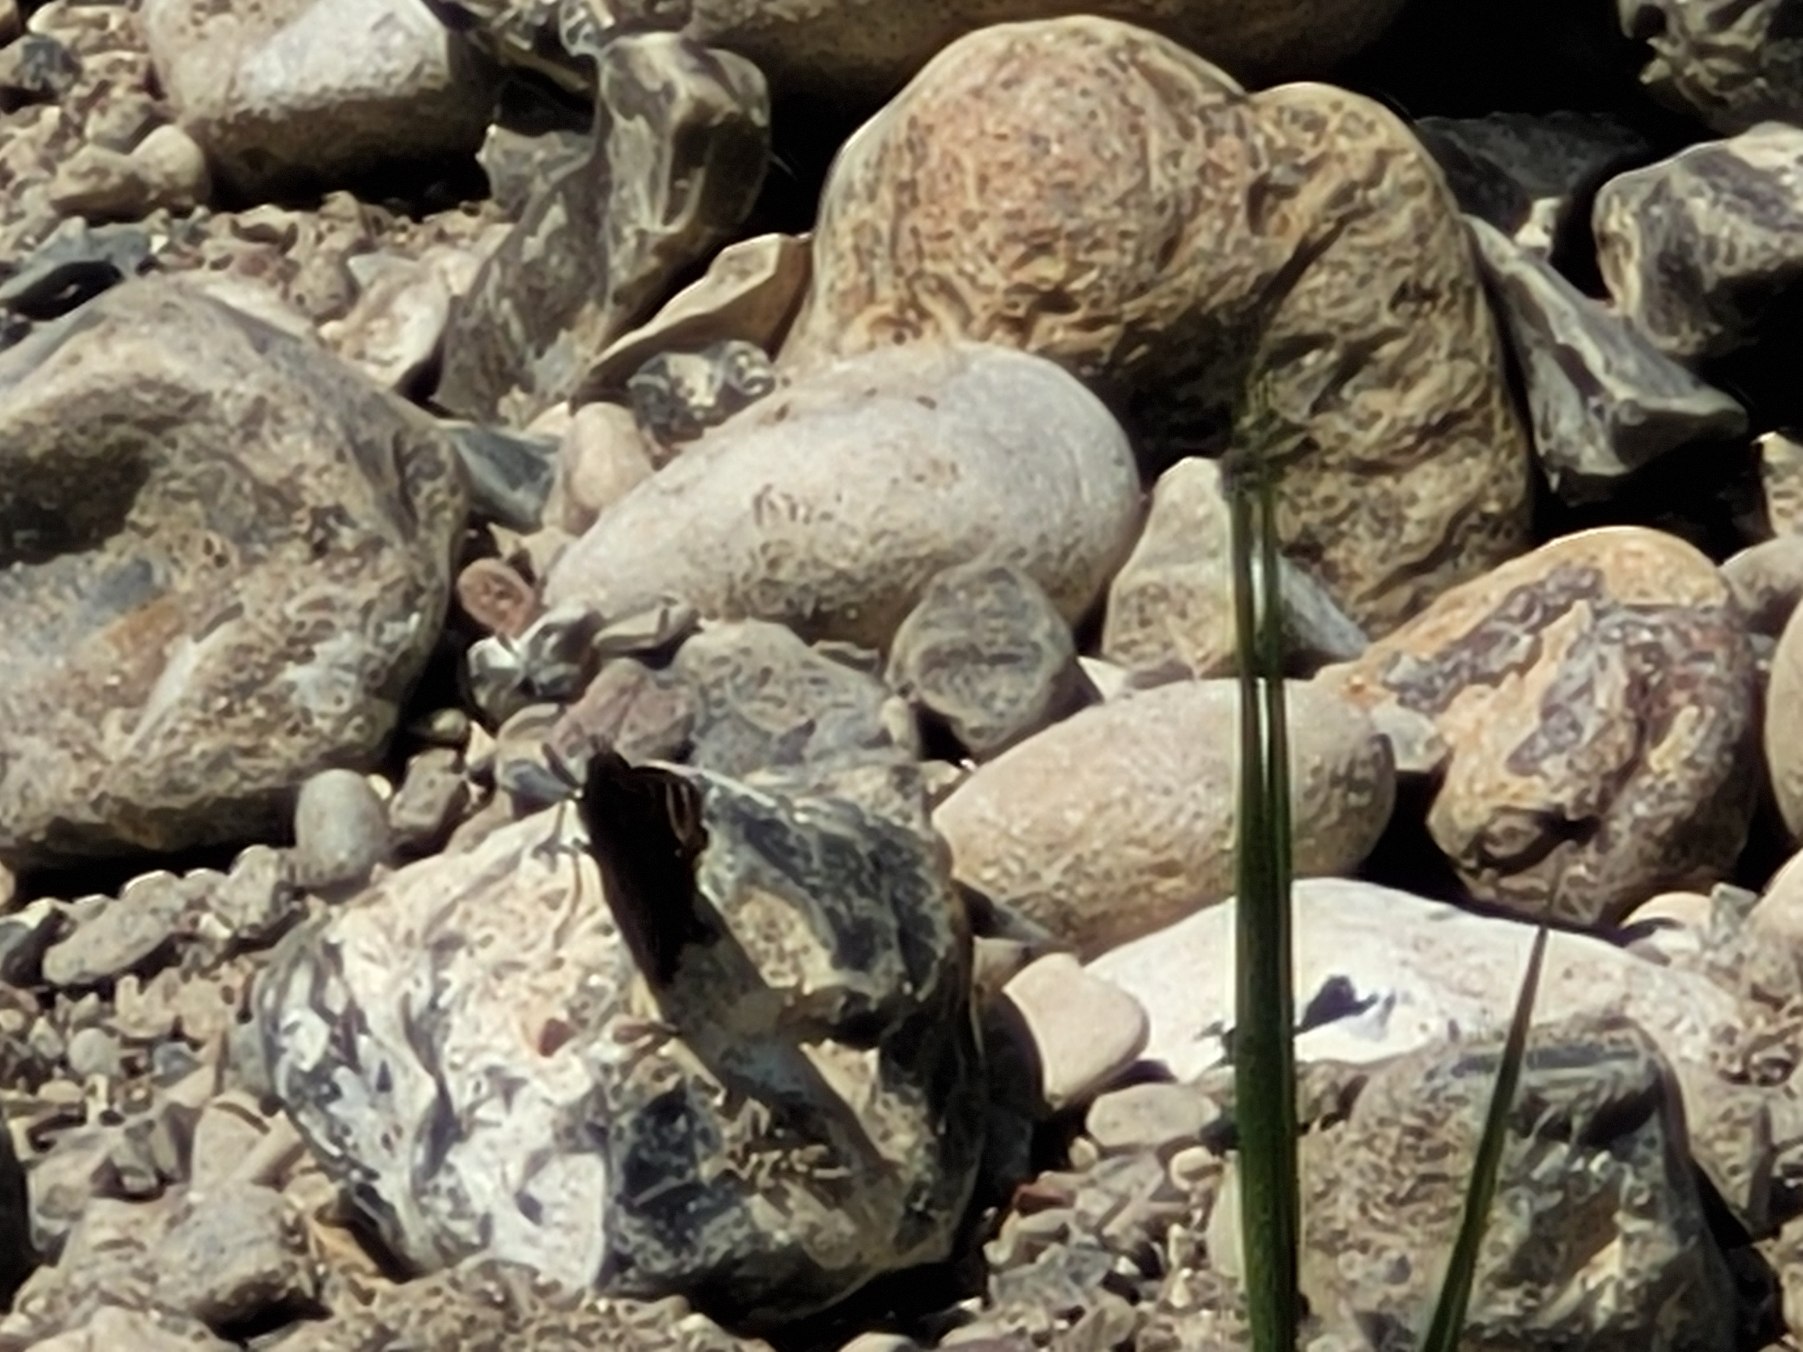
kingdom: Animalia
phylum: Arthropoda
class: Insecta
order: Lepidoptera
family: Nymphalidae
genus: Aglais
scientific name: Aglais io
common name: Dagpåfugleøje
